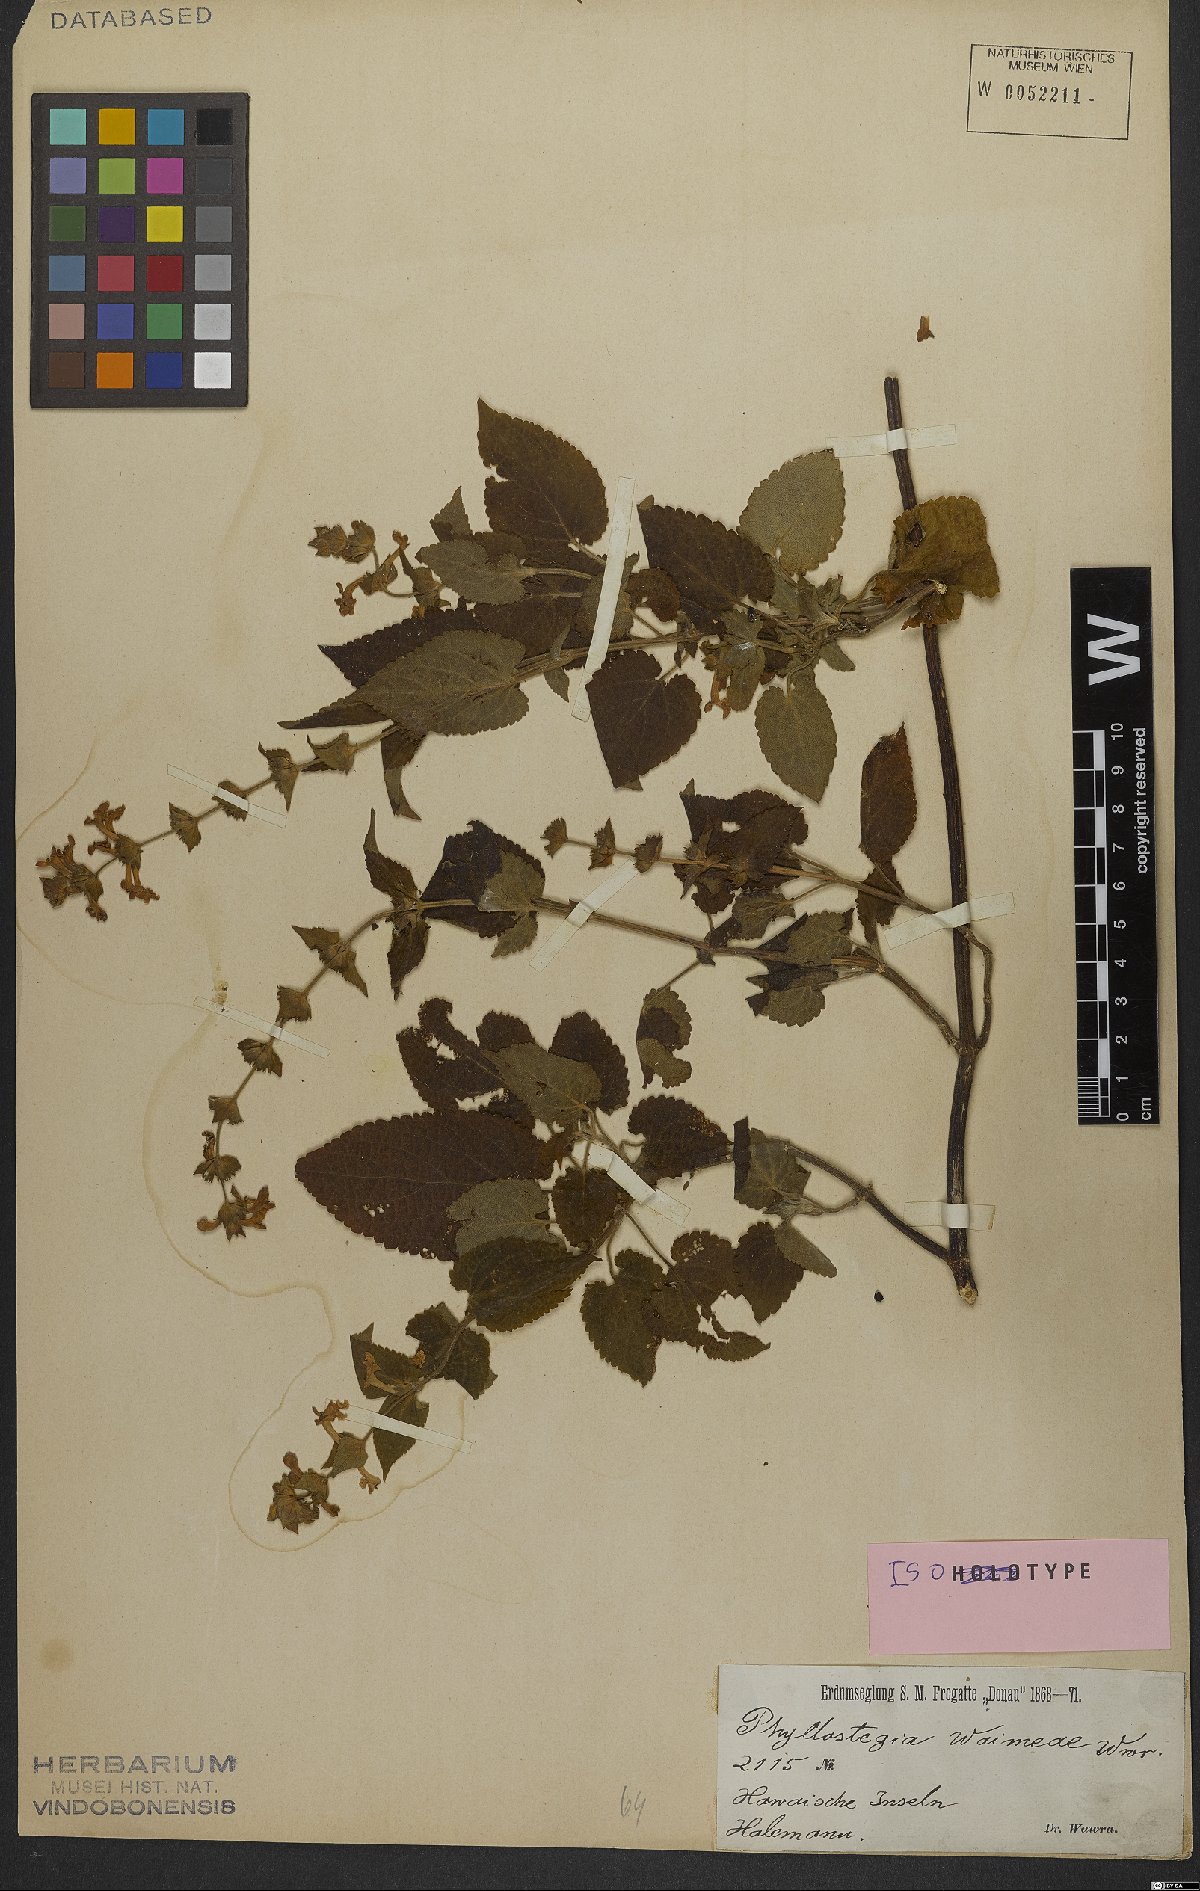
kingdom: Plantae
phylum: Tracheophyta
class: Magnoliopsida
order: Lamiales
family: Lamiaceae
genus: Phyllostegia
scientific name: Phyllostegia waimeae
